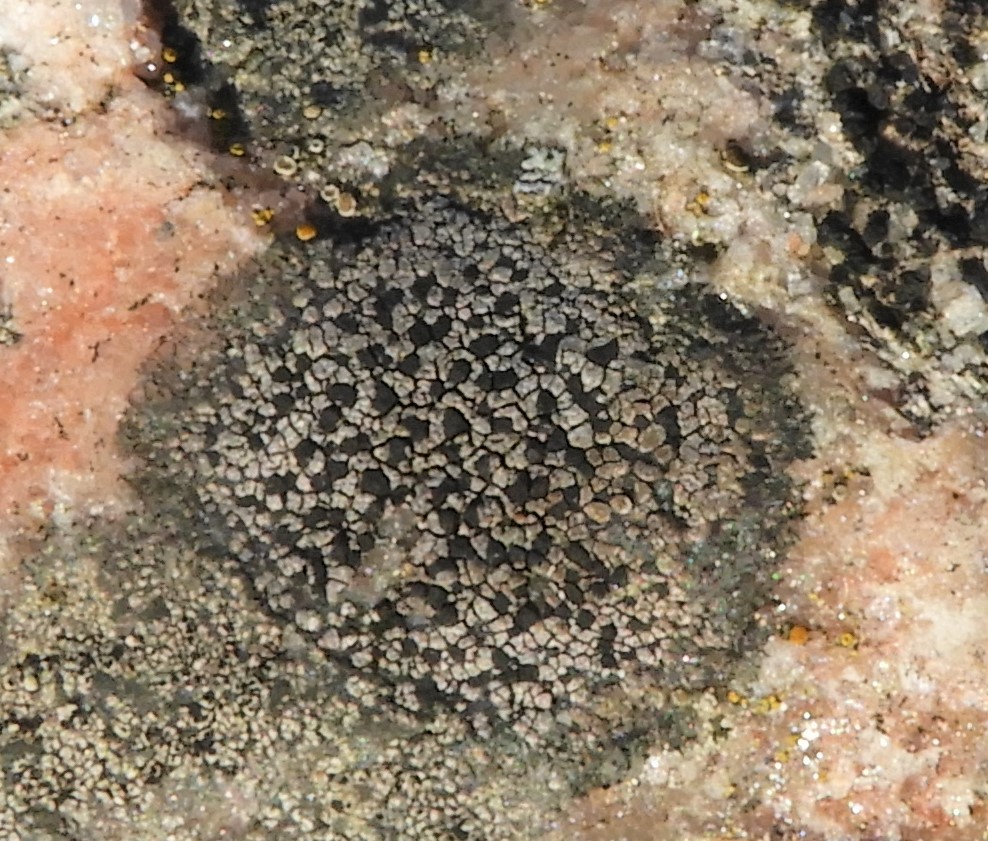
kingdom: Fungi
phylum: Ascomycota
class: Lecanoromycetes
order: Rhizocarpales
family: Rhizocarpaceae
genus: Rhizocarpon
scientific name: Rhizocarpon
